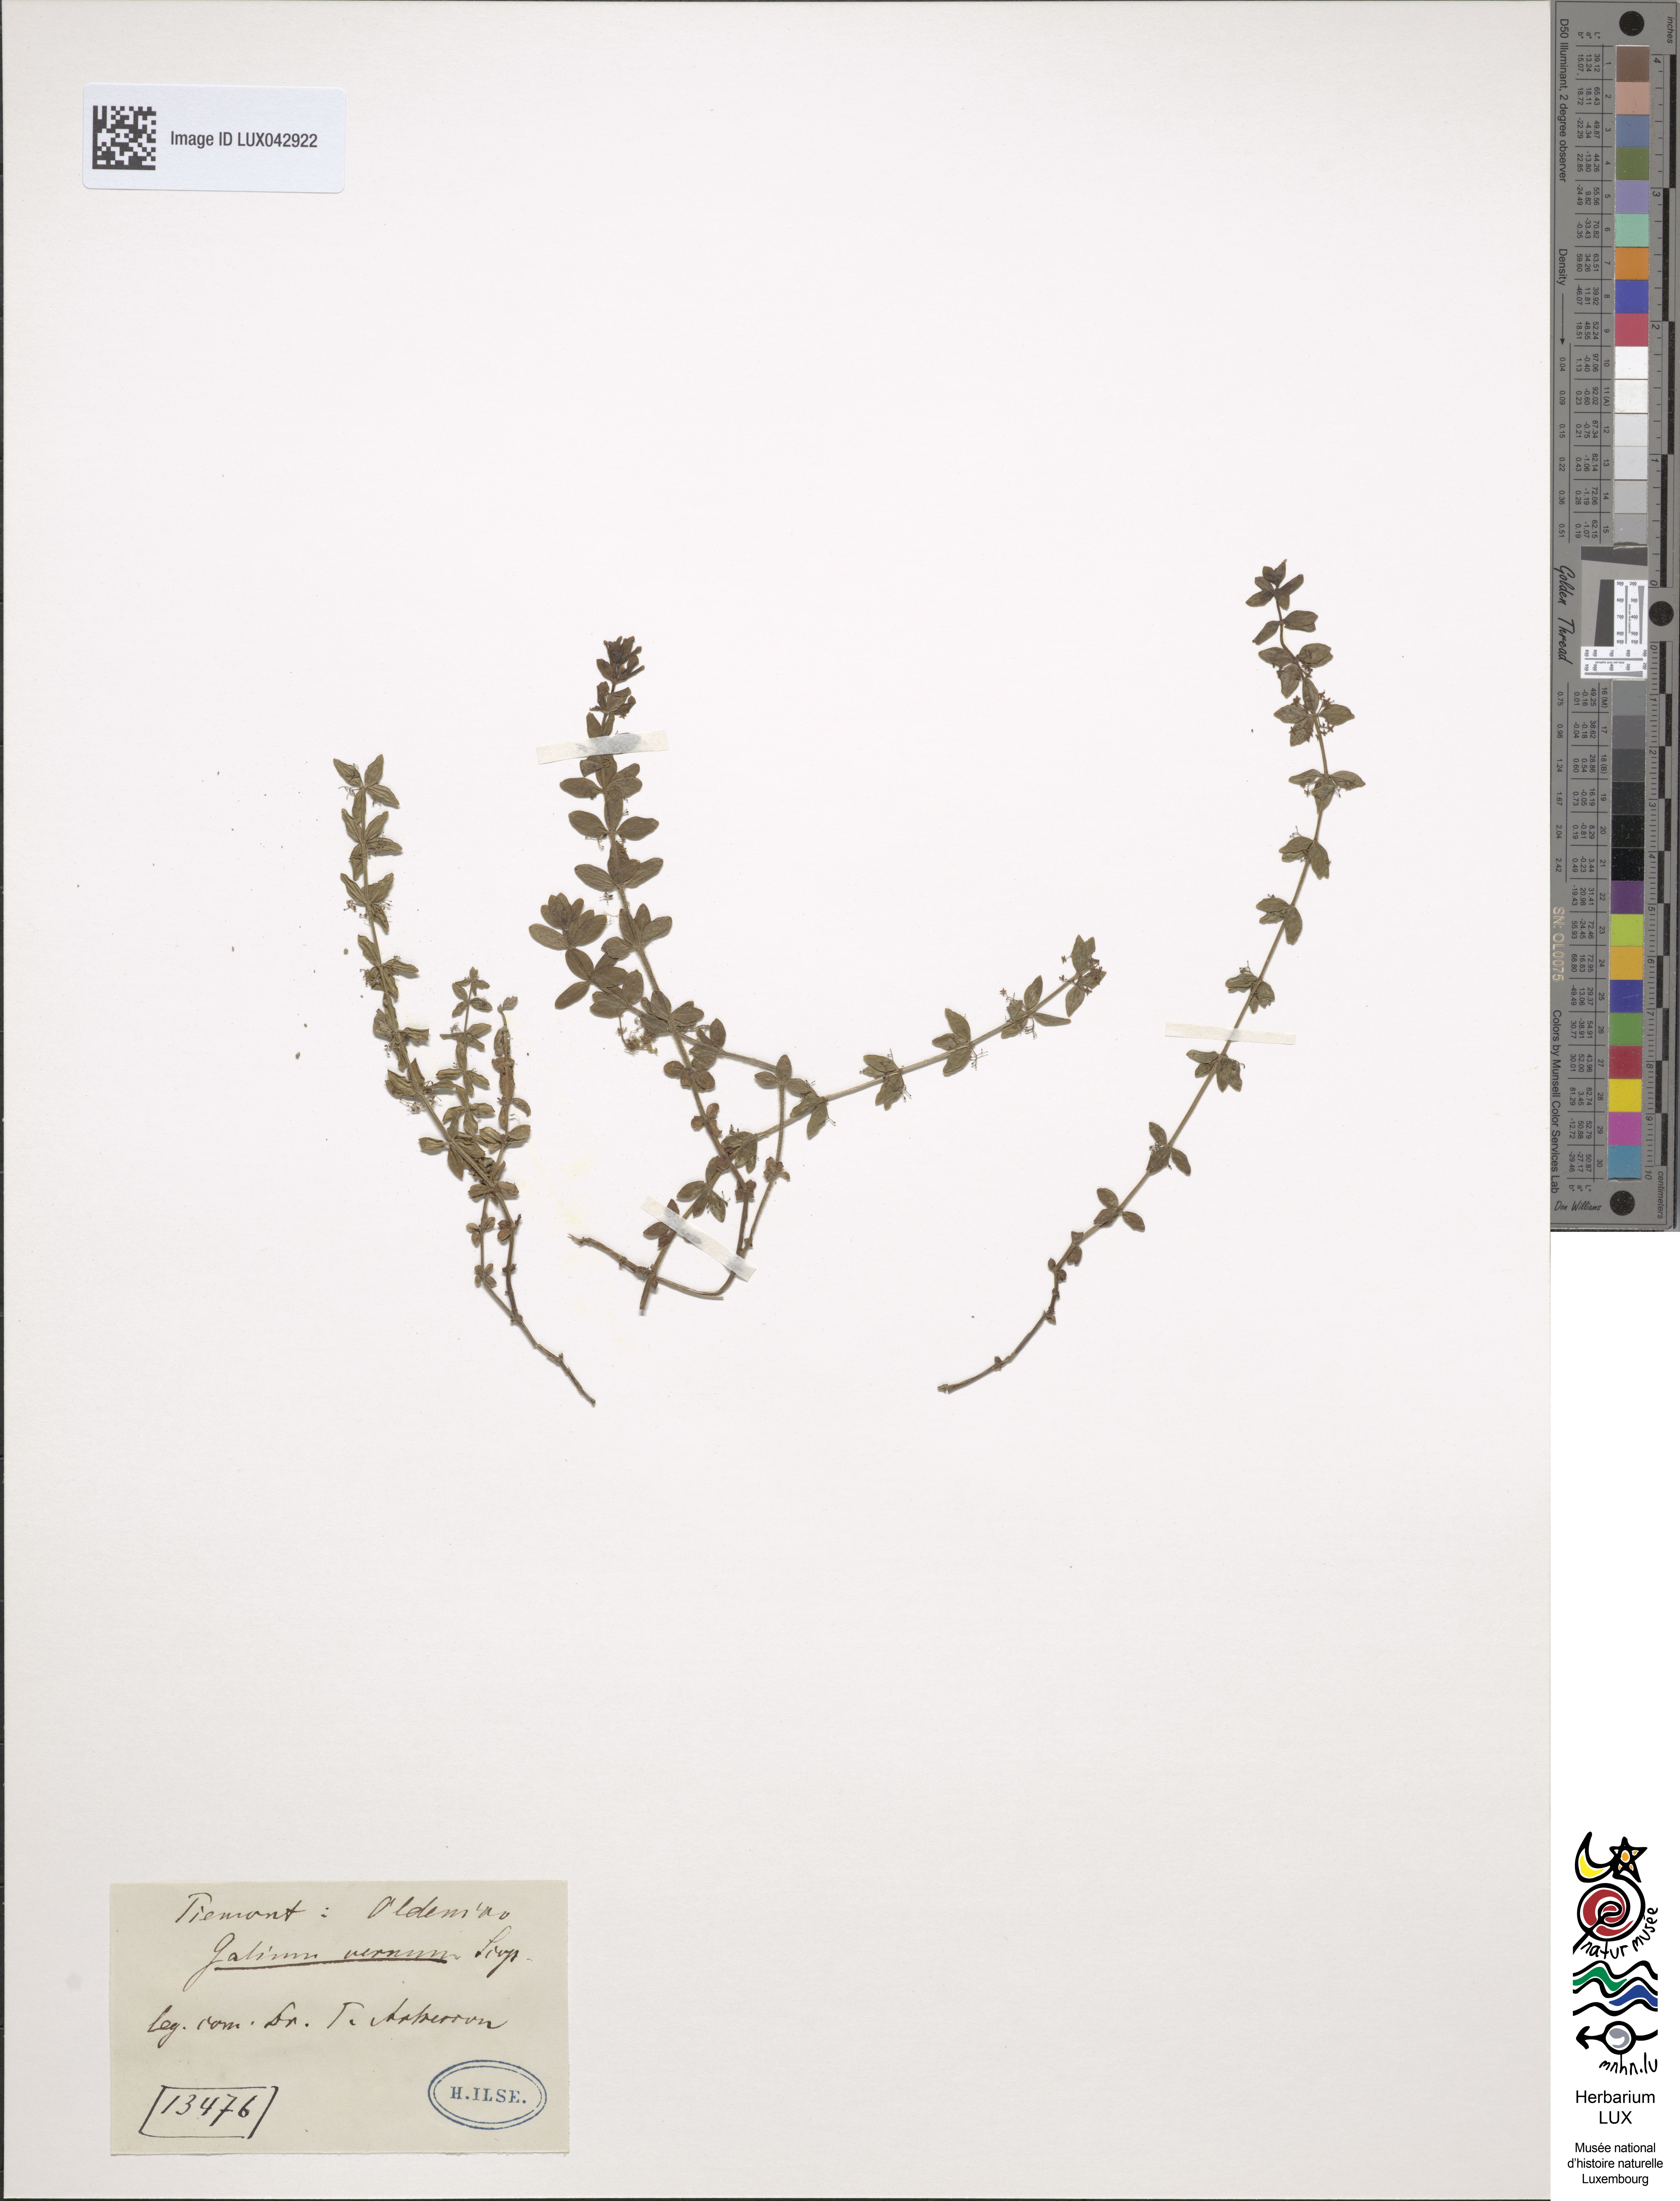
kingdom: Plantae
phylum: Tracheophyta
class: Magnoliopsida
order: Gentianales
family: Rubiaceae
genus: Cruciata
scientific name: Cruciata glabra
